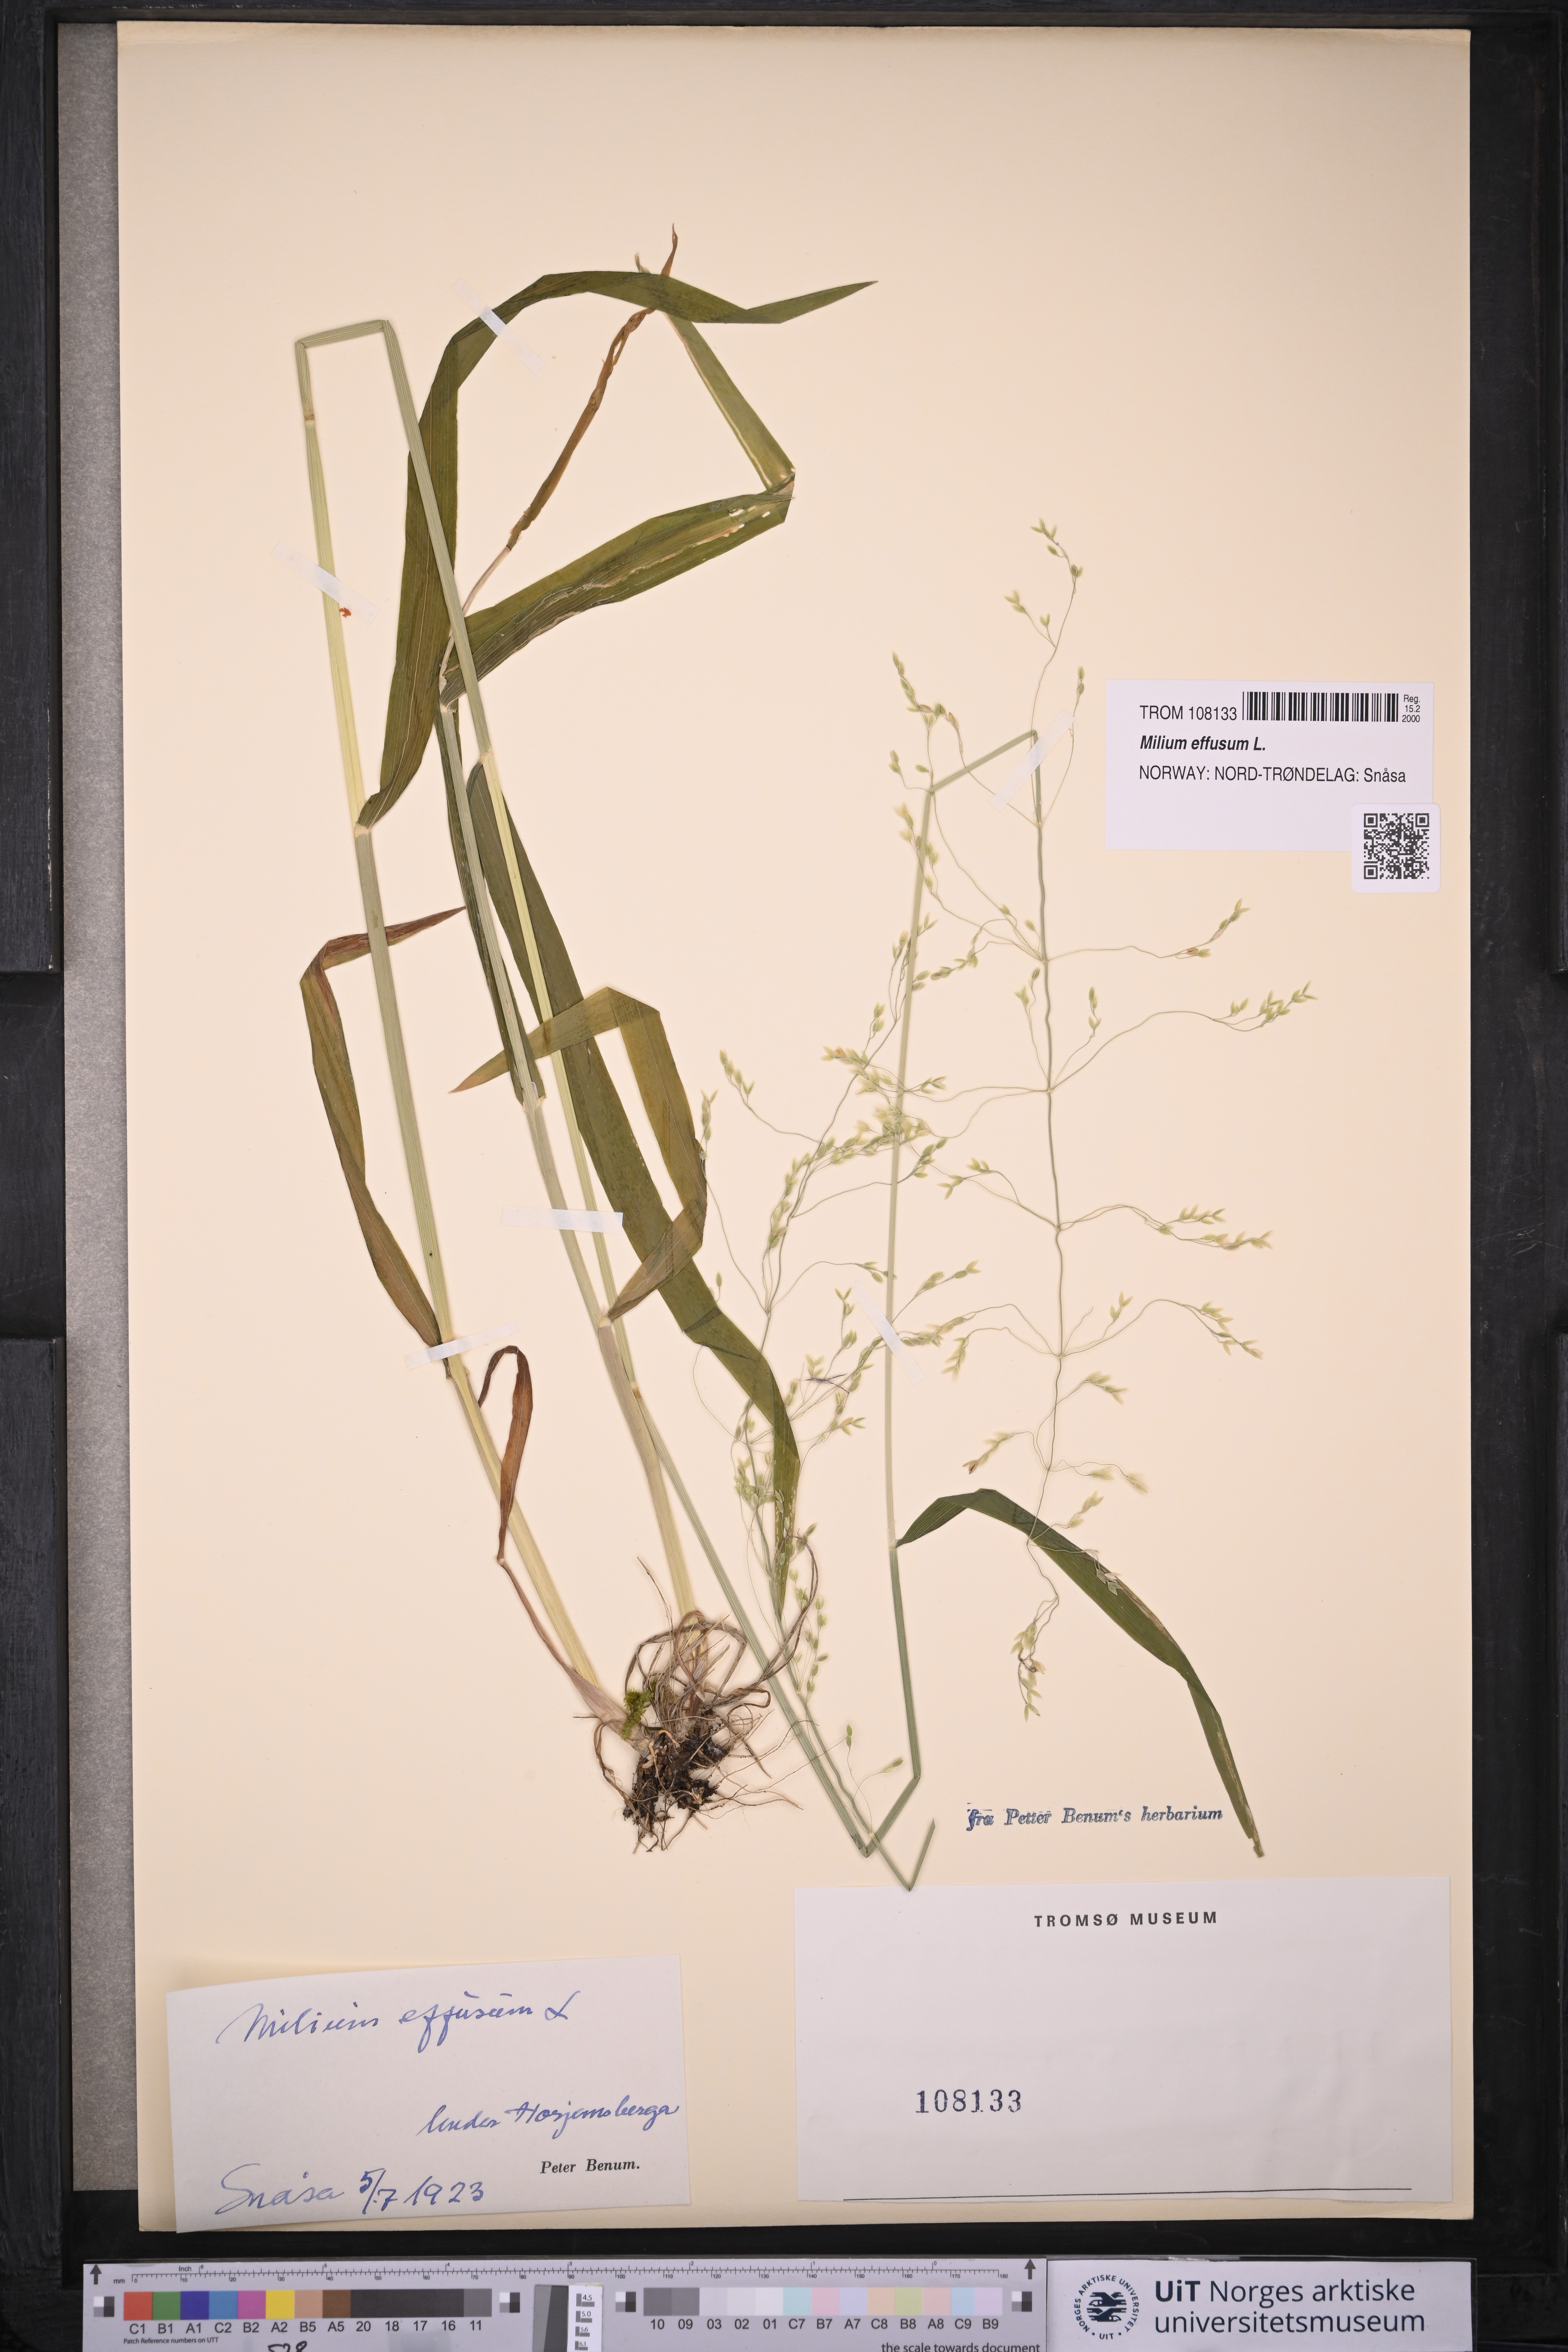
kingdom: Plantae
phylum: Tracheophyta
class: Liliopsida
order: Poales
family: Poaceae
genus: Milium
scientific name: Milium effusum
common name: Wood millet
